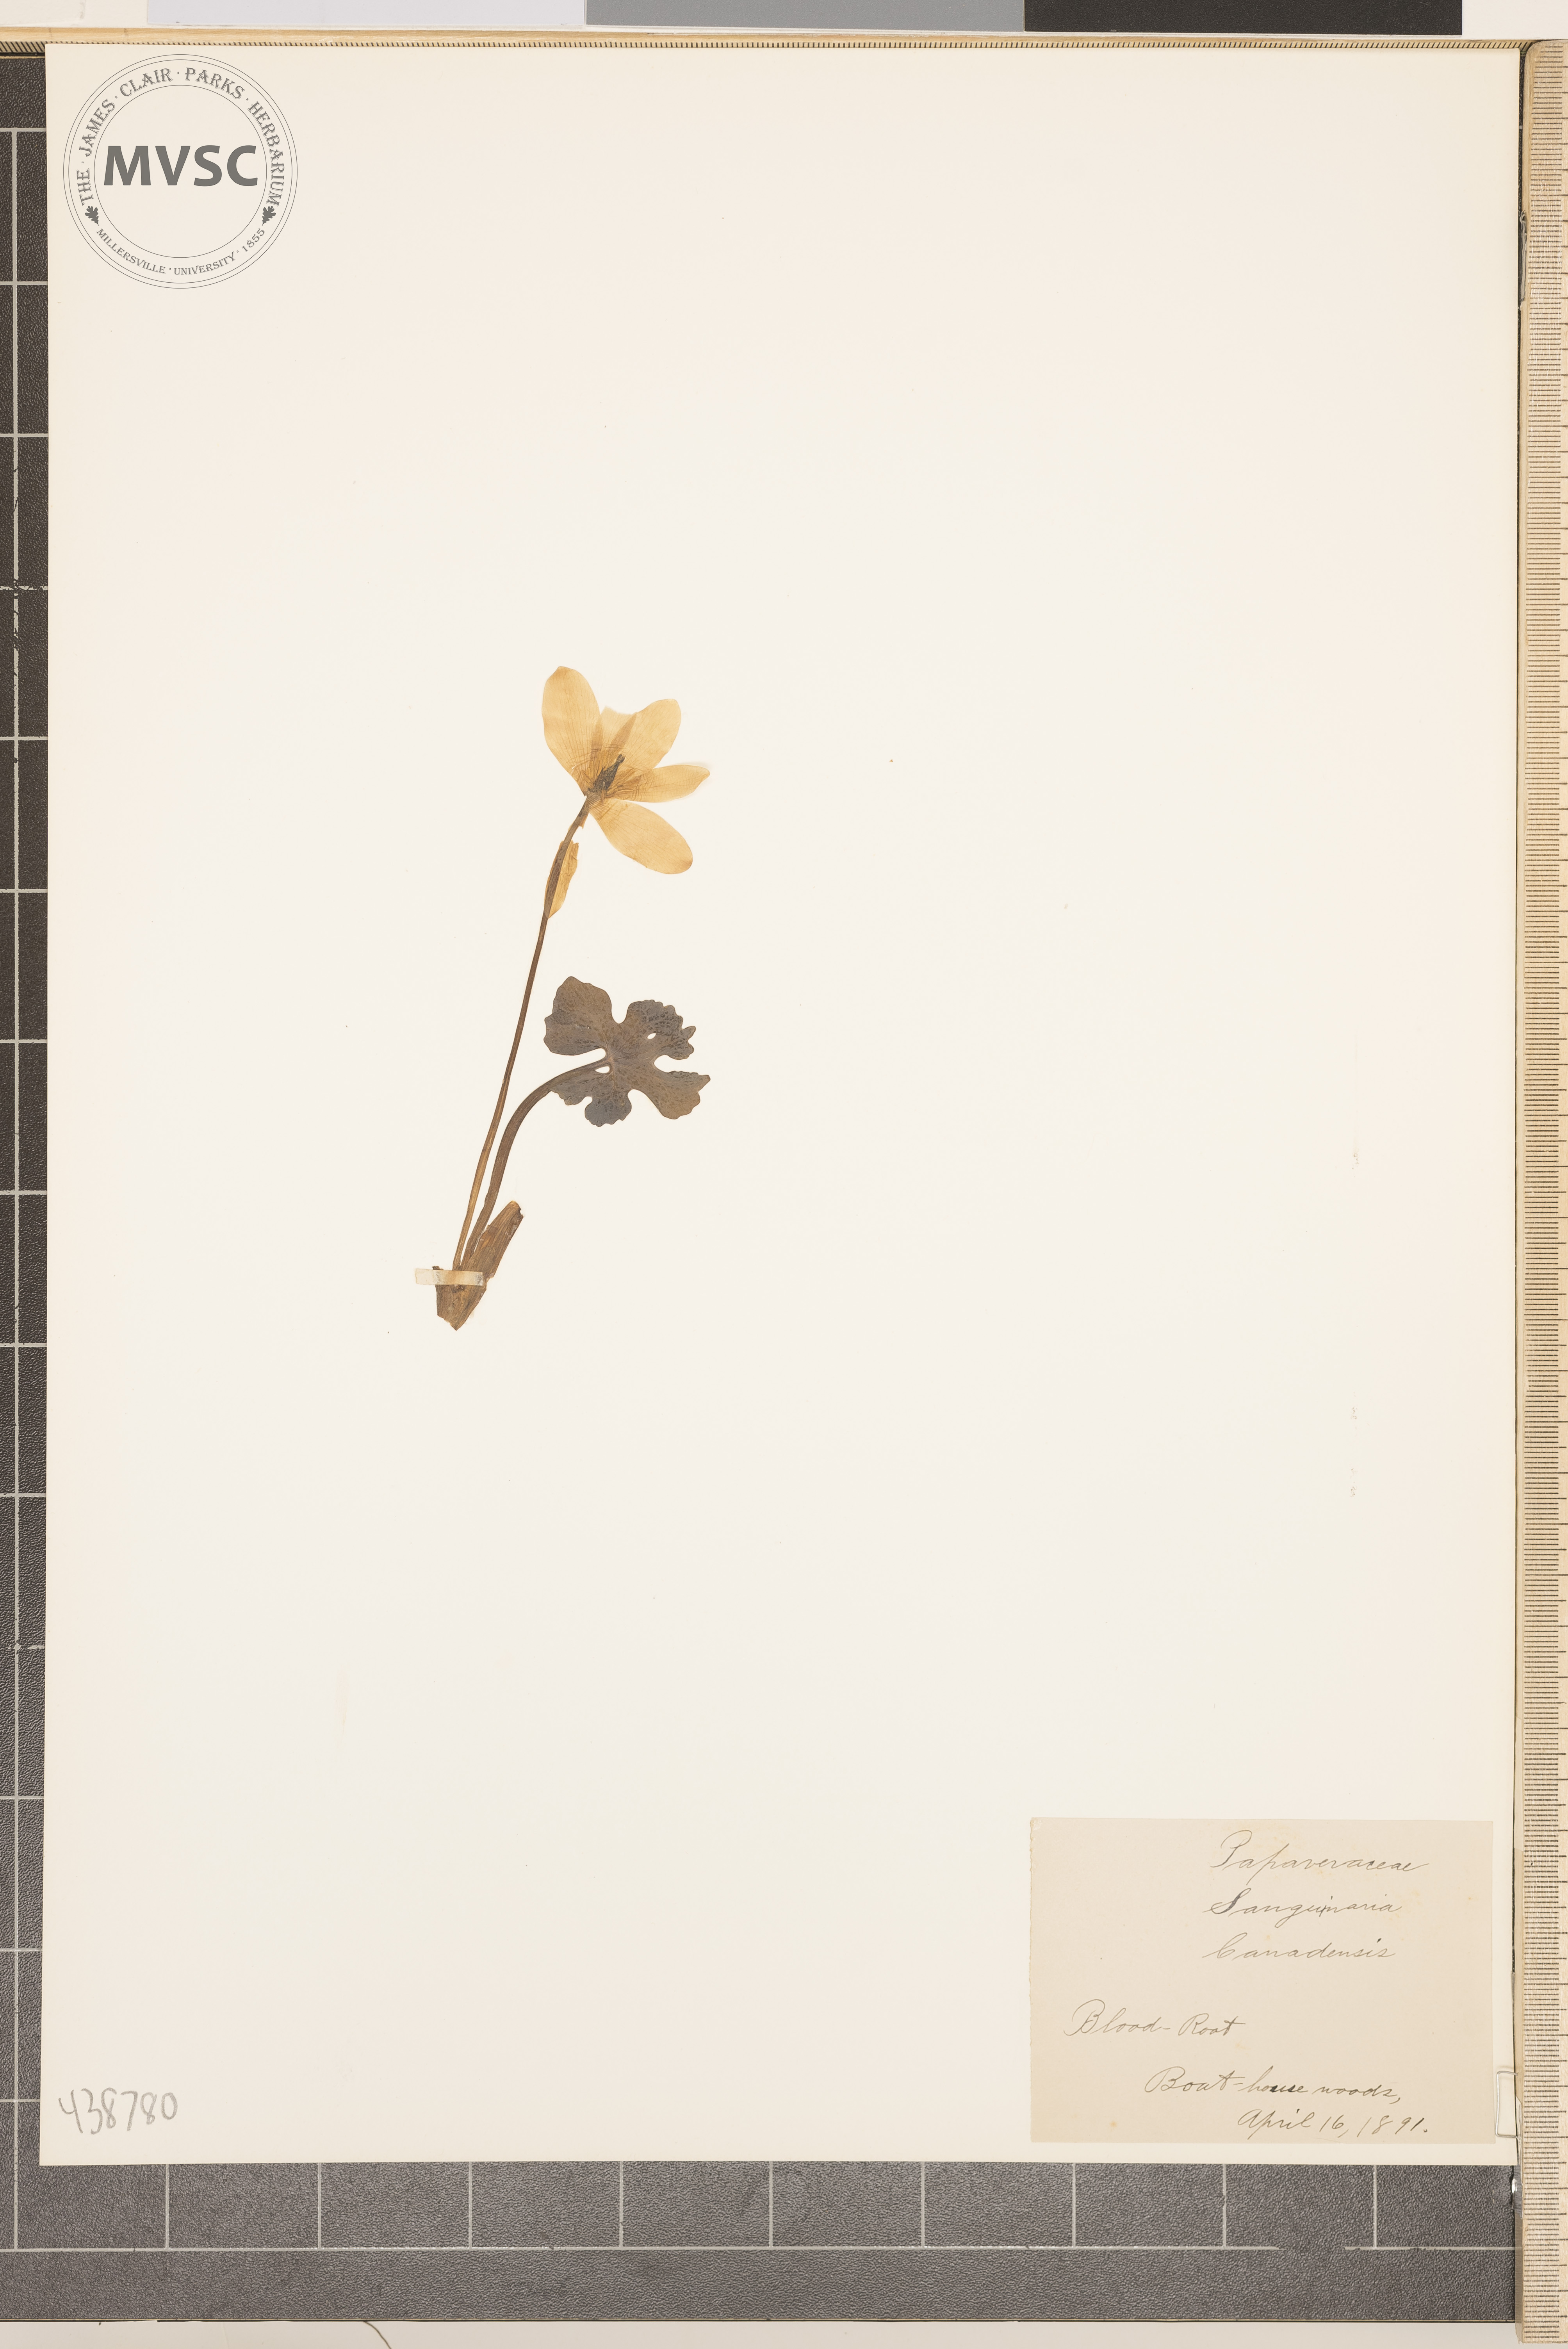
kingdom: Plantae
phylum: Tracheophyta
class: Magnoliopsida
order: Ranunculales
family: Papaveraceae
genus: Sanguinaria
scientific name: Sanguinaria canadensis
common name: Blood root
